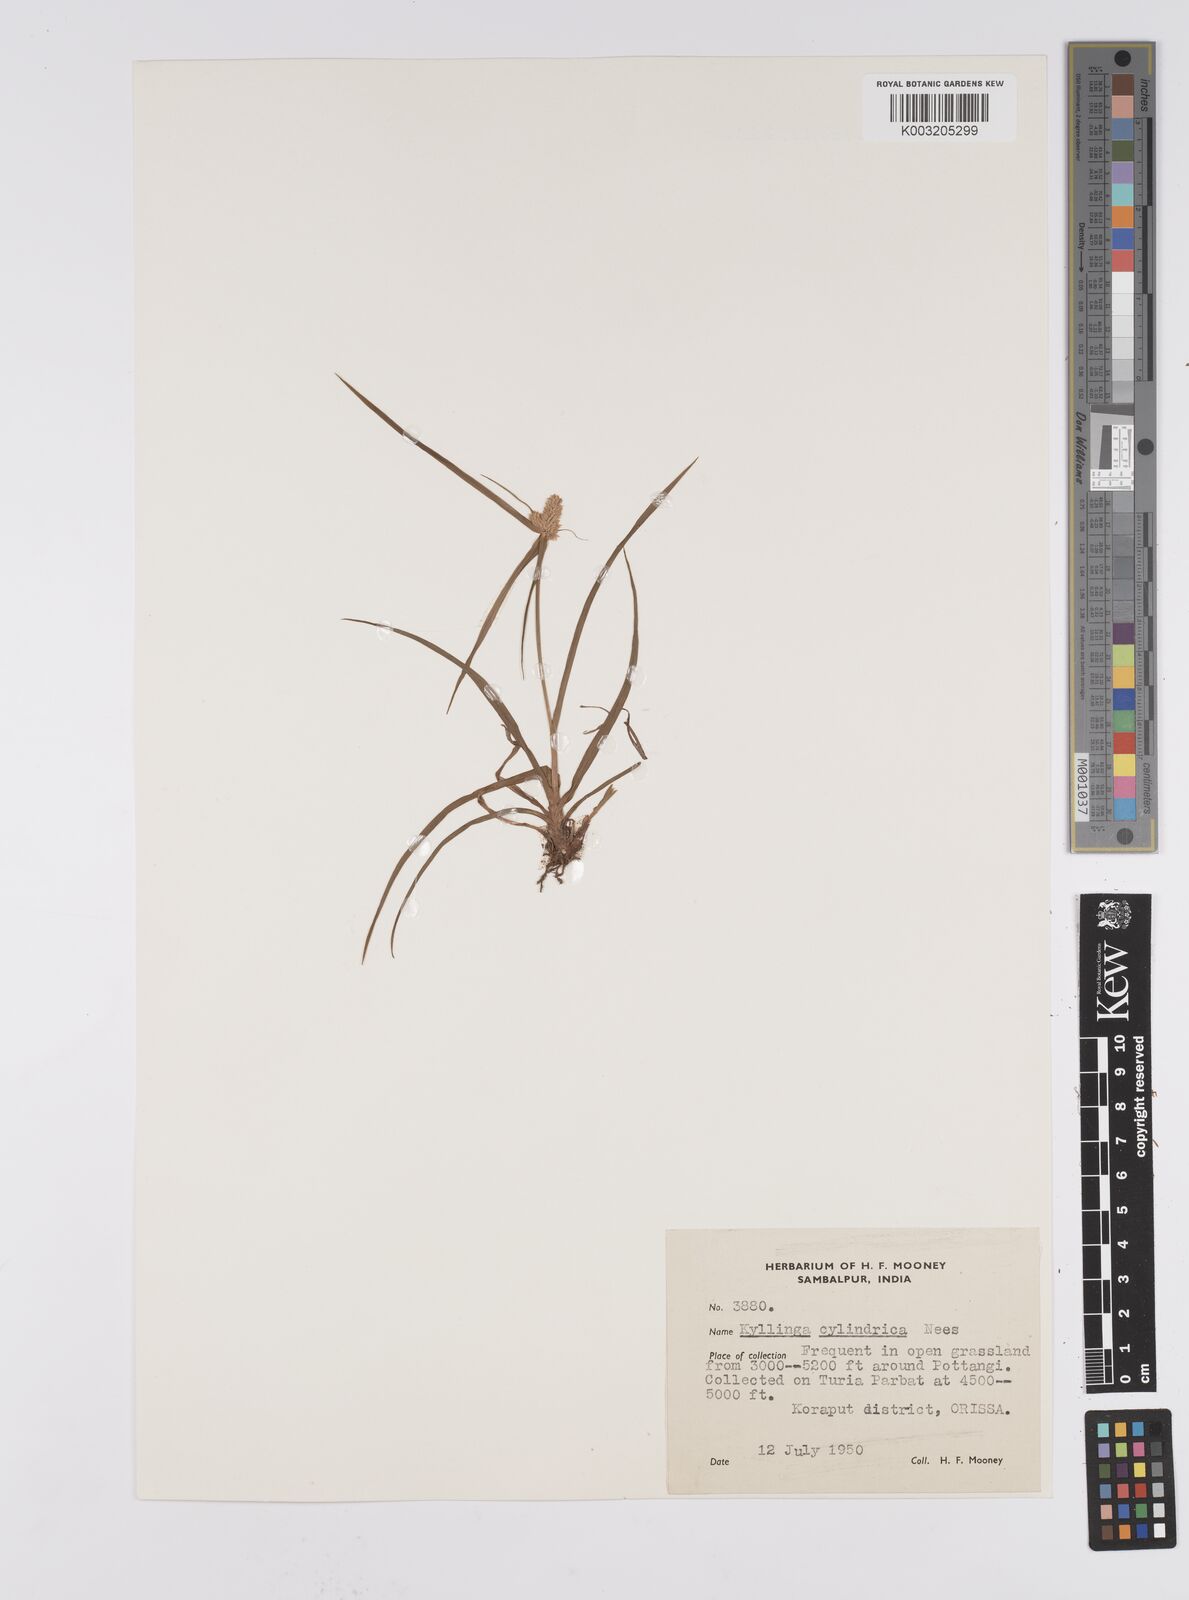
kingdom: Plantae
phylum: Tracheophyta
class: Liliopsida
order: Poales
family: Cyperaceae
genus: Cyperus
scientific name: Cyperus
